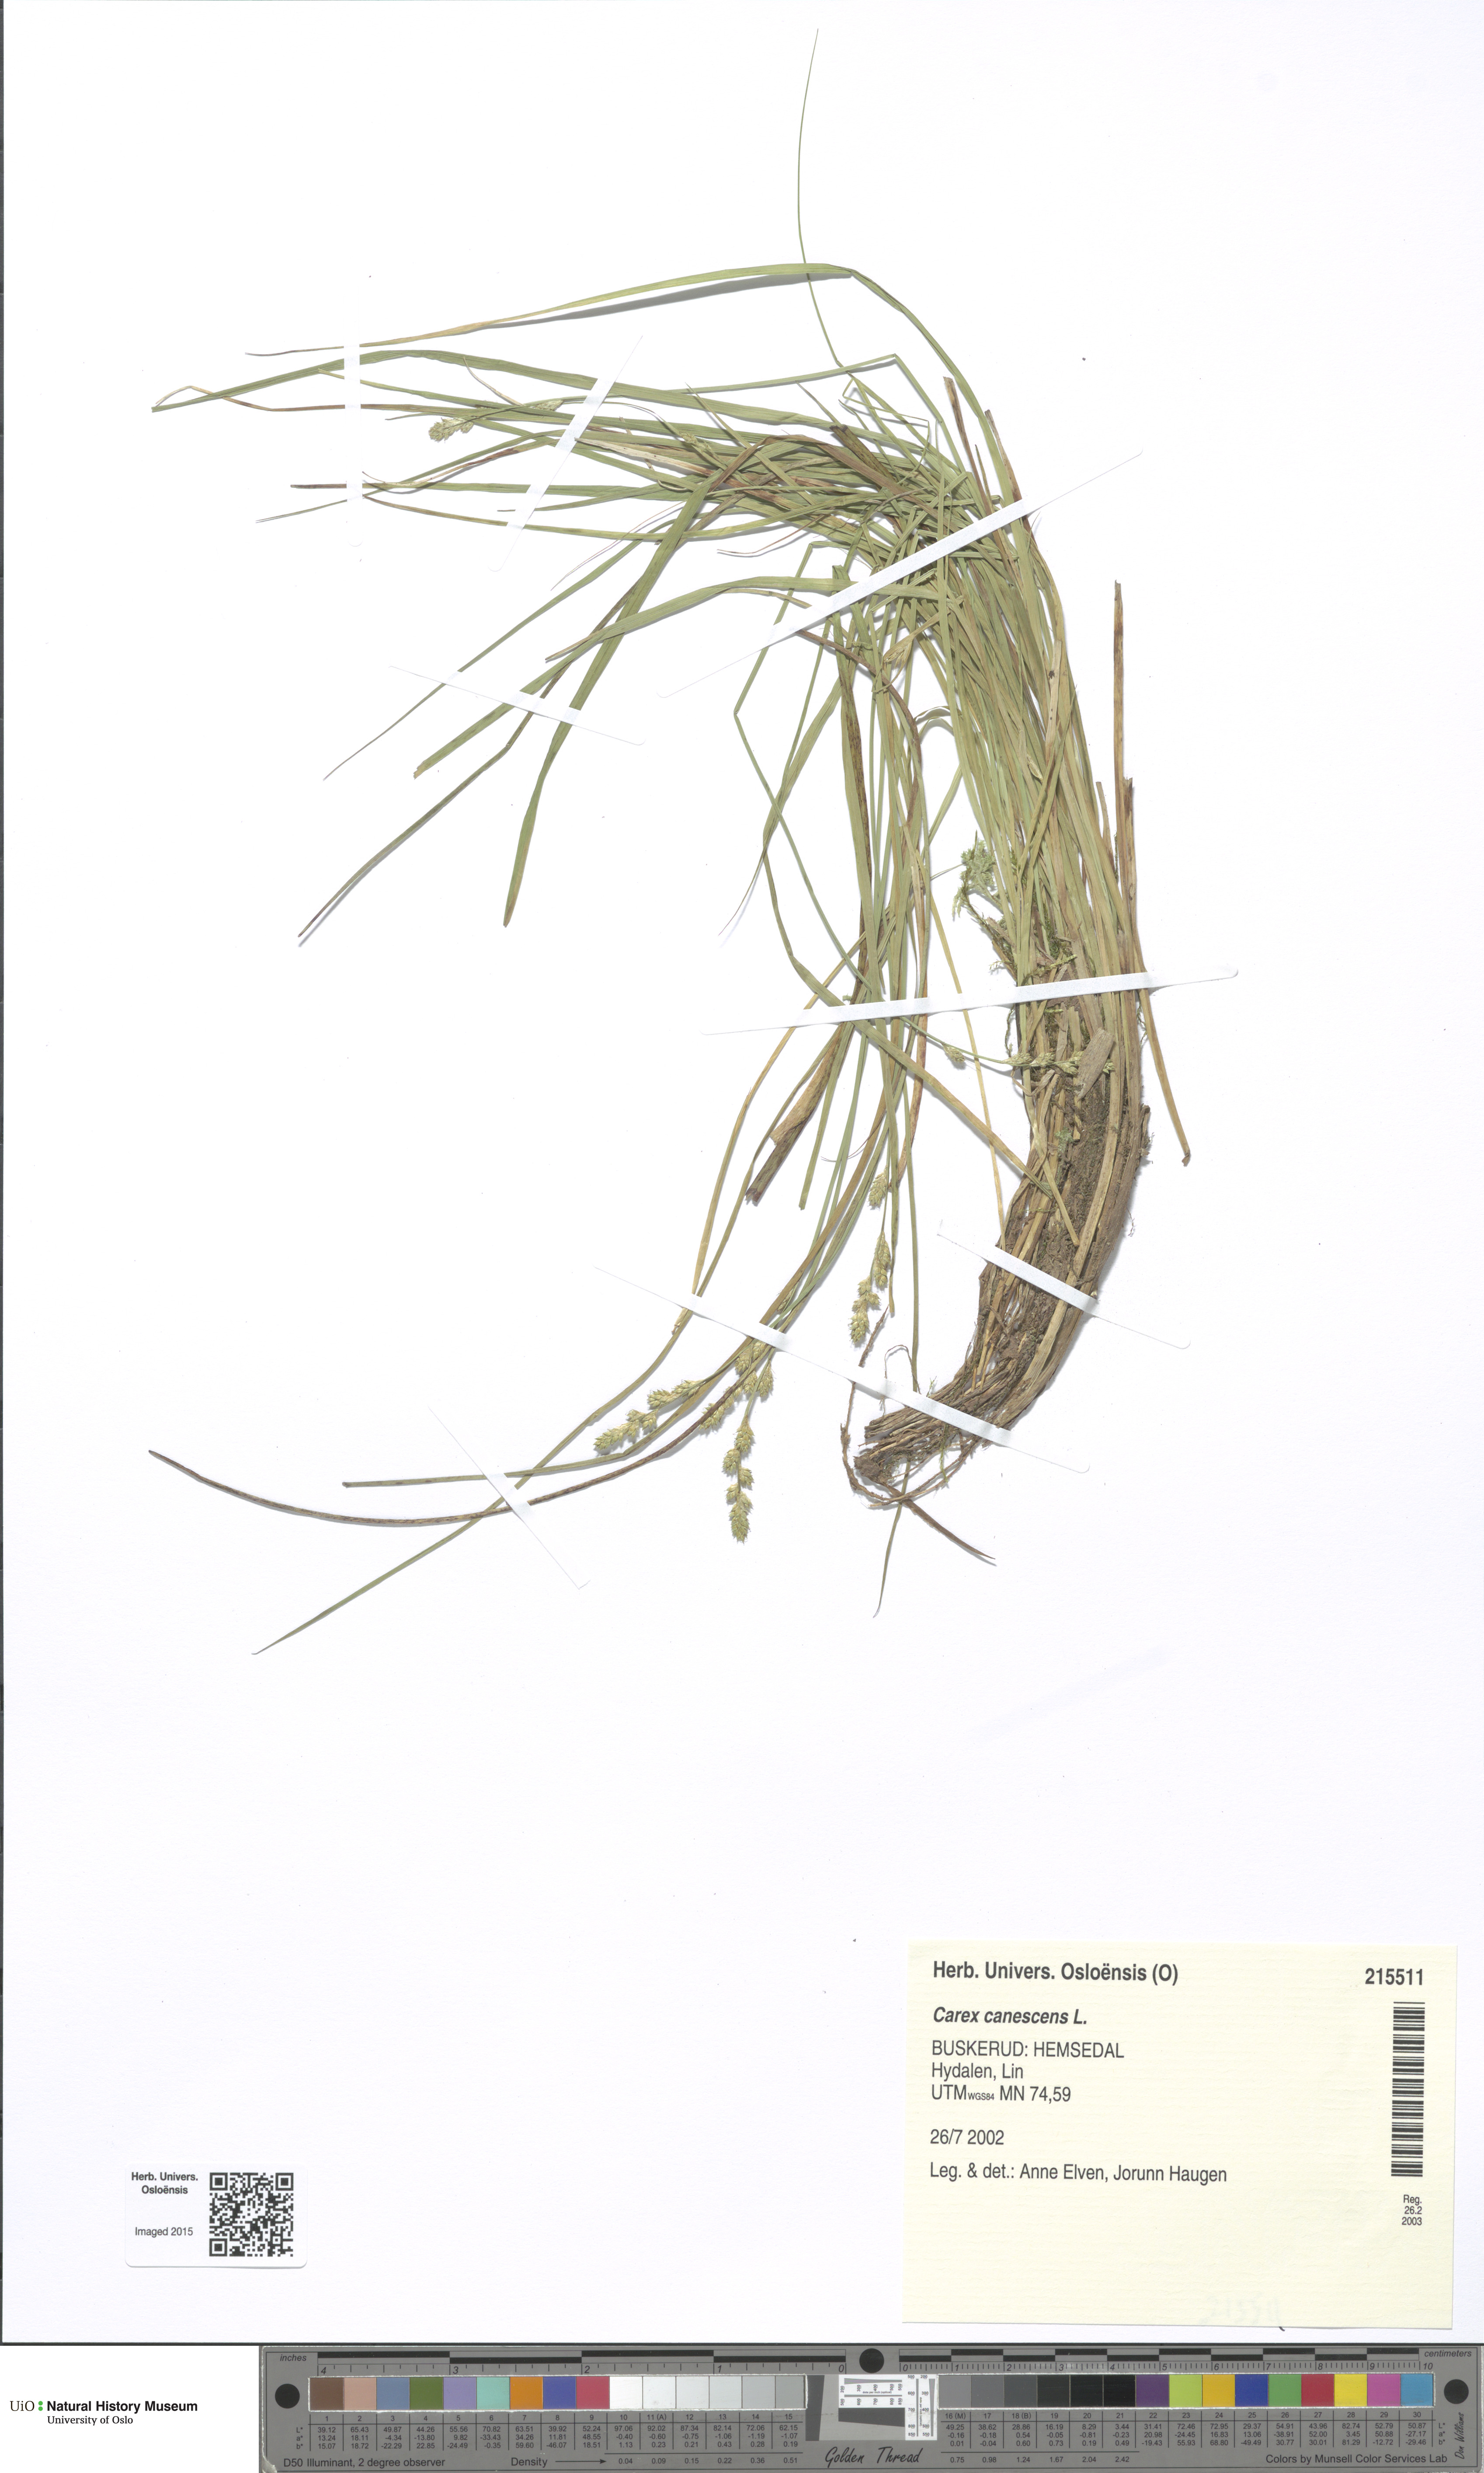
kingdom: Plantae
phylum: Tracheophyta
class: Liliopsida
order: Poales
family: Cyperaceae
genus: Carex
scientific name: Carex canescens
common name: White sedge
